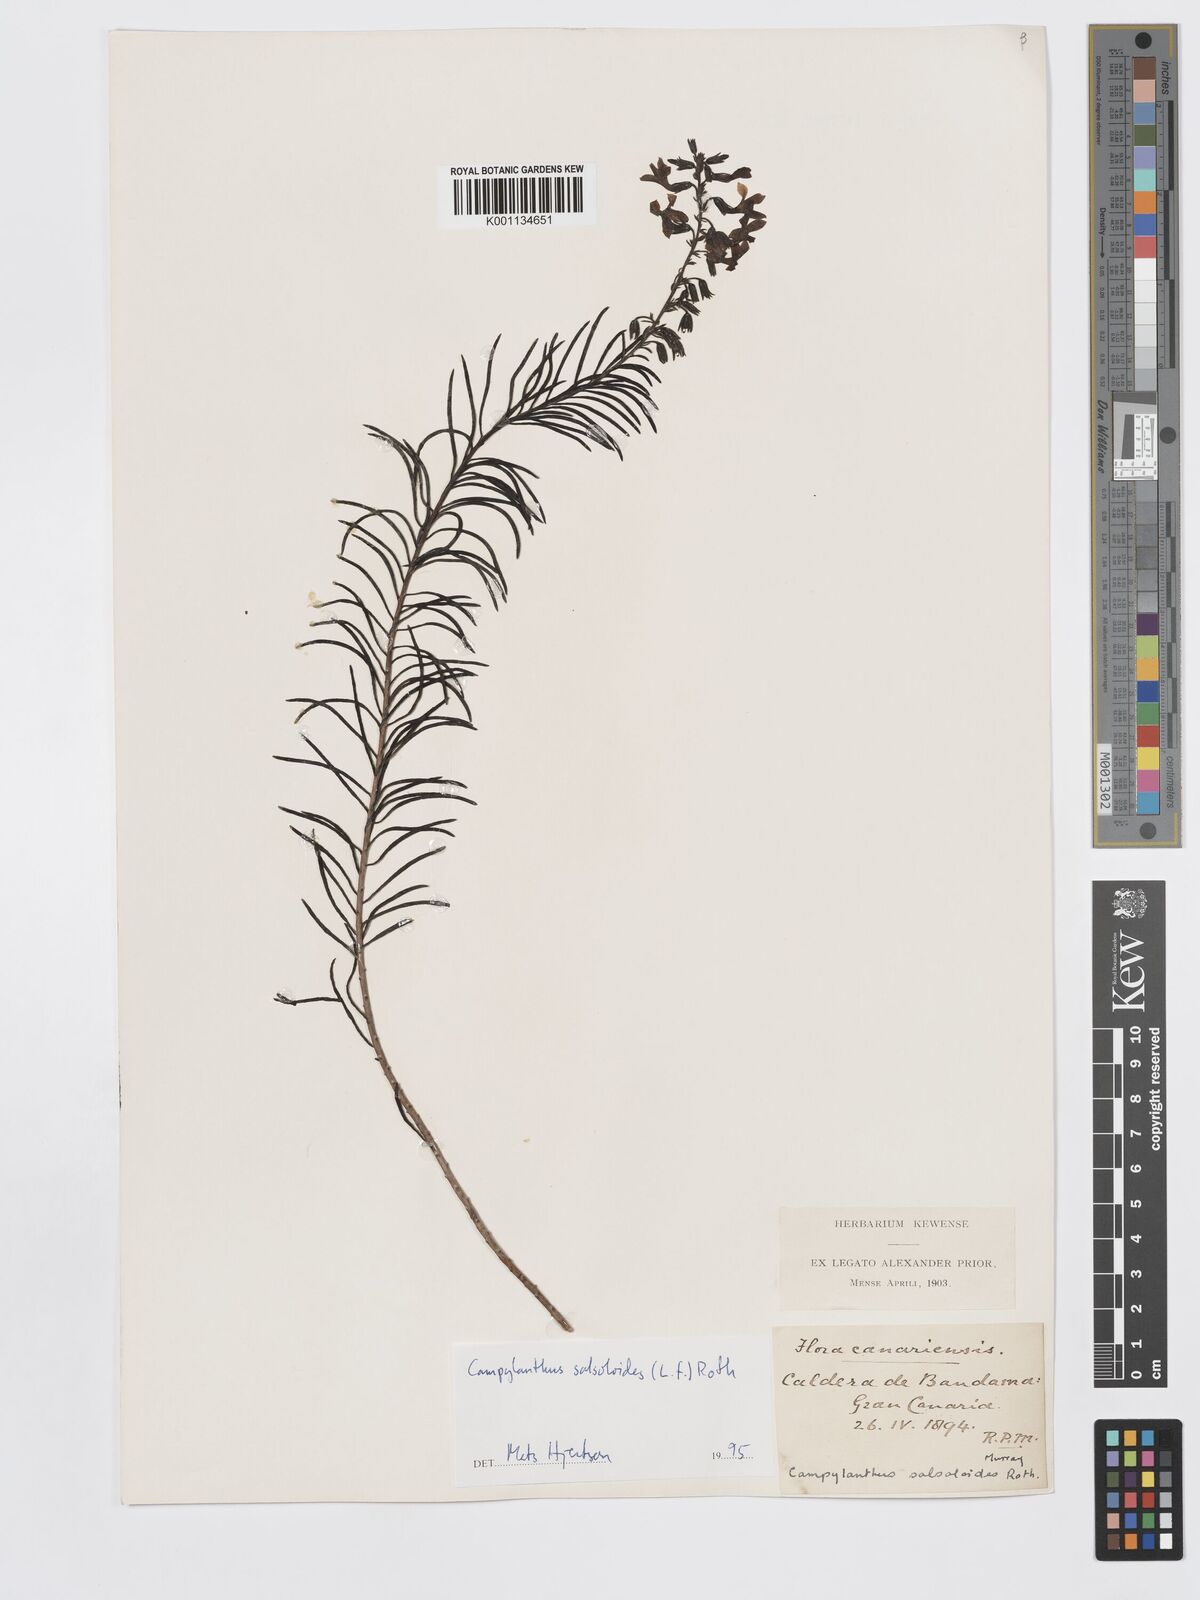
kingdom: Plantae
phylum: Tracheophyta
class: Magnoliopsida
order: Lamiales
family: Plantaginaceae
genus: Campylanthus
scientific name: Campylanthus
